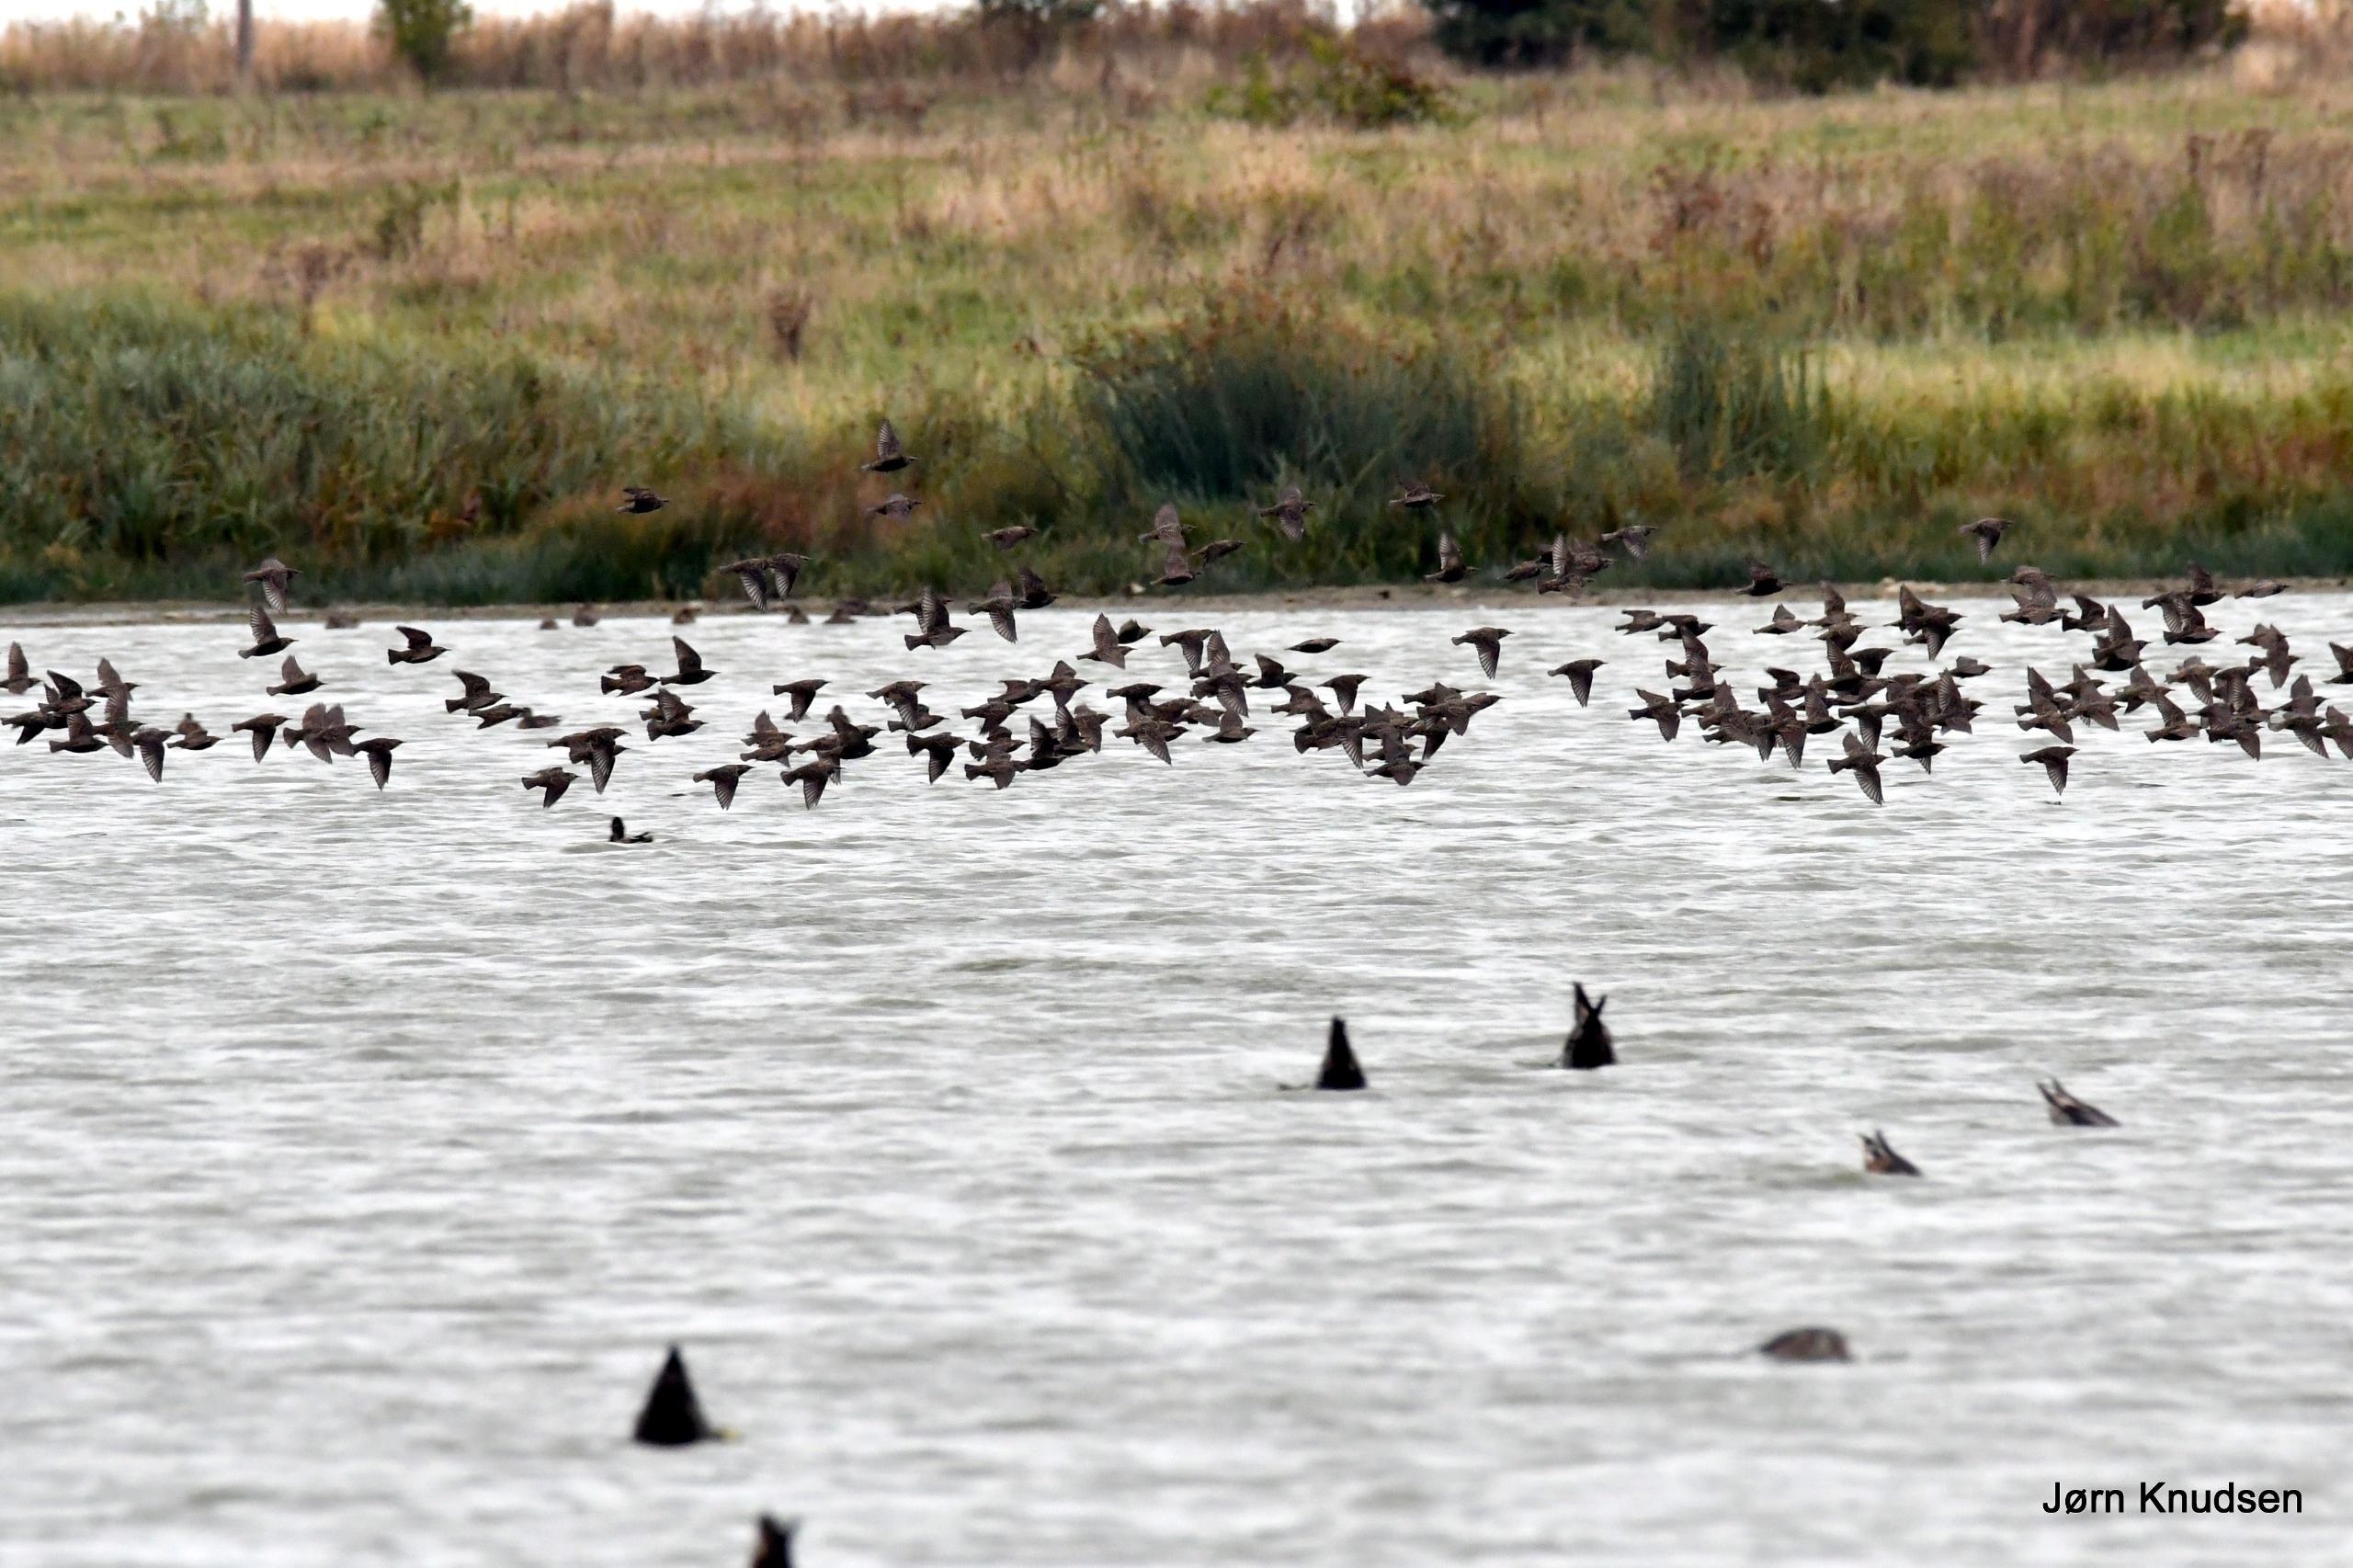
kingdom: Animalia
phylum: Chordata
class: Aves
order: Passeriformes
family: Sturnidae
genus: Sturnus
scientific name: Sturnus vulgaris
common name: Stær
